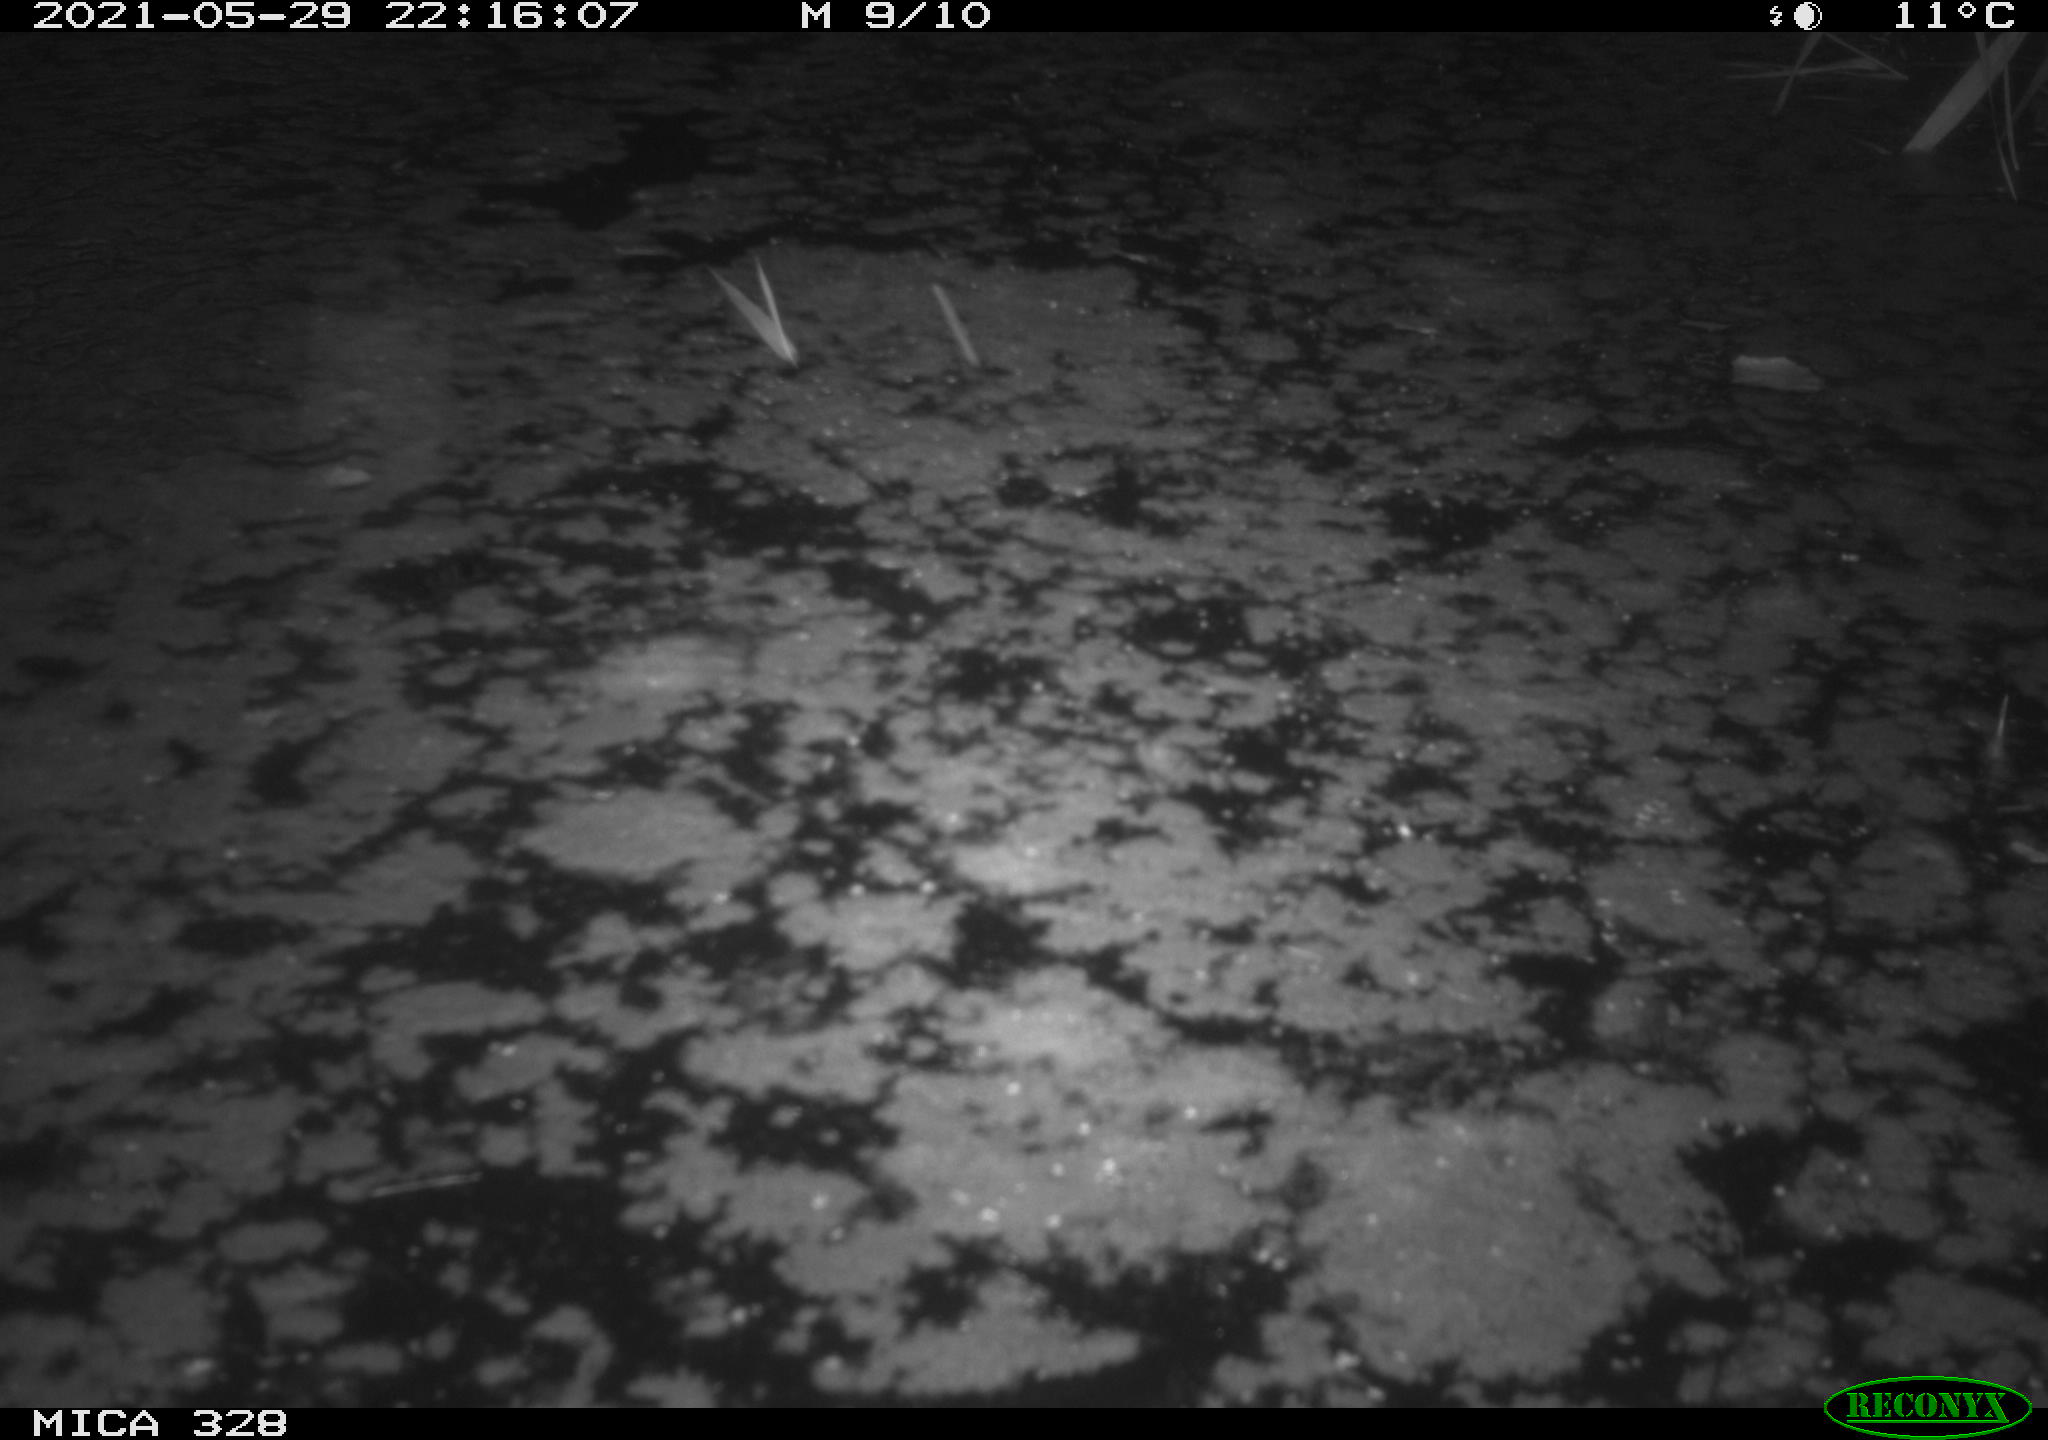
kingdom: Animalia
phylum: Chordata
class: Aves
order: Anseriformes
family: Anatidae
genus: Anas
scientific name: Anas platyrhynchos
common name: Mallard
